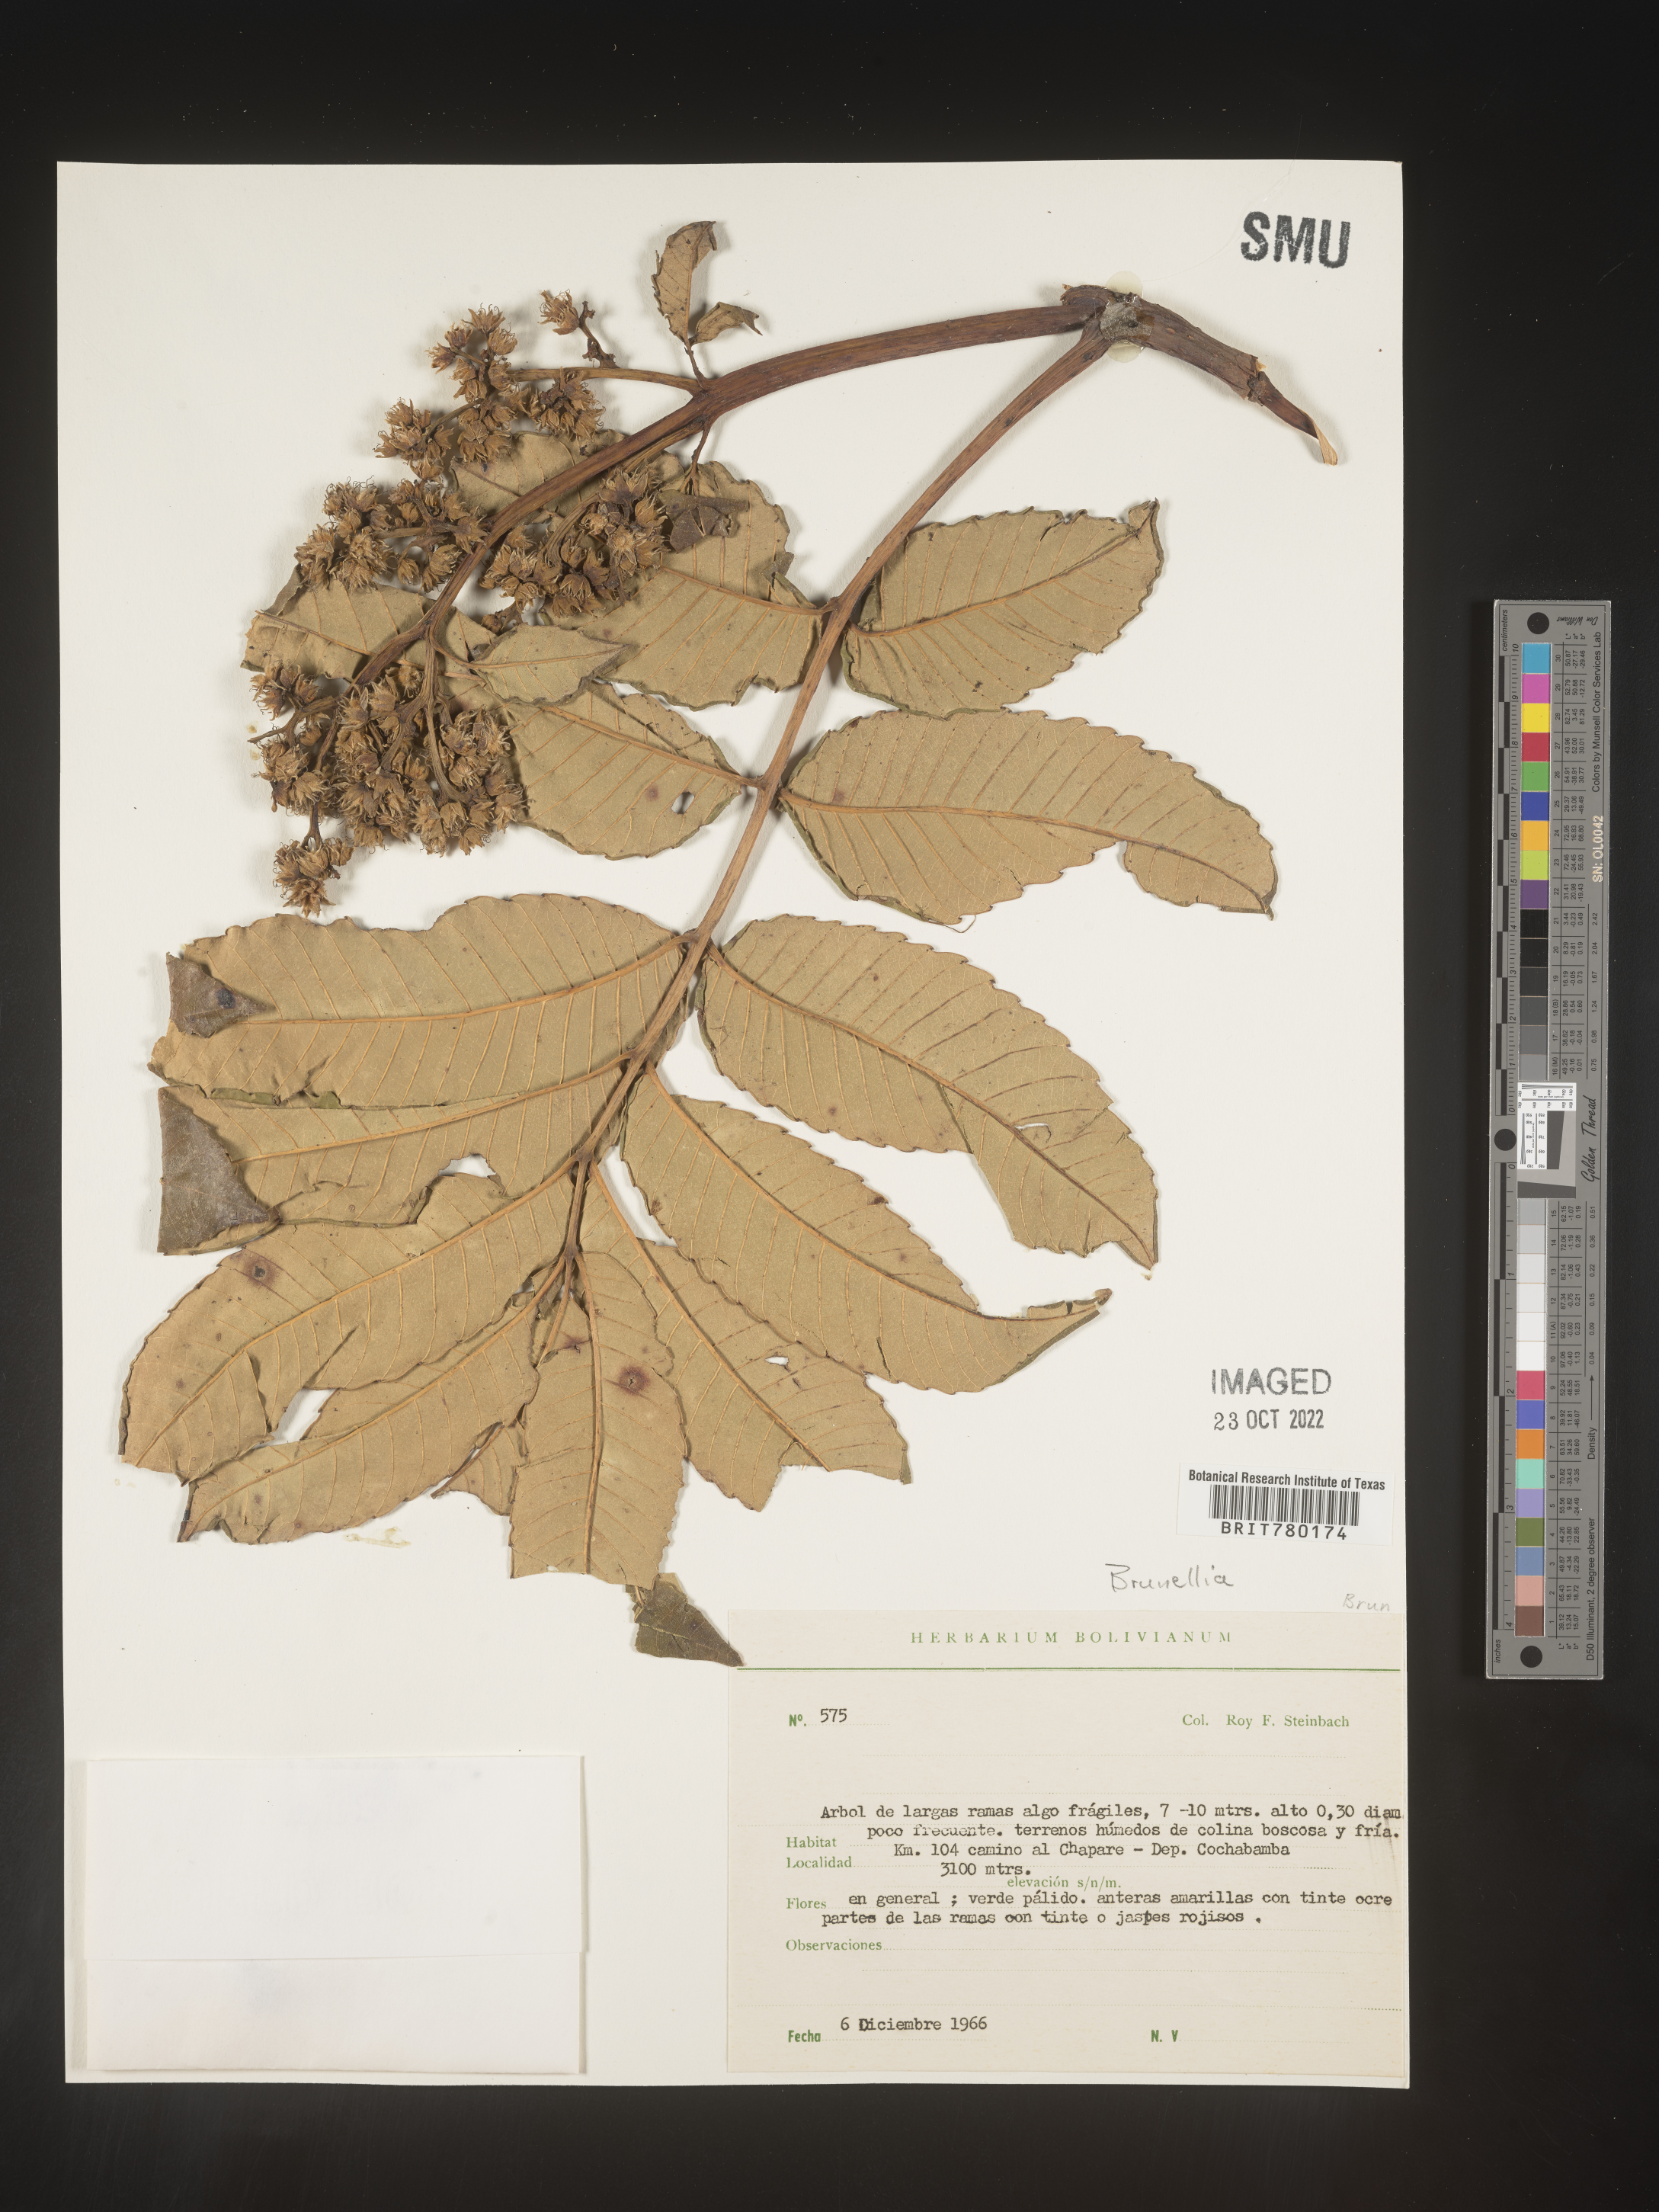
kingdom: Plantae
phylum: Tracheophyta
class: Magnoliopsida
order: Oxalidales
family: Brunelliaceae
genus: Brunellia
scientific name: Brunellia
